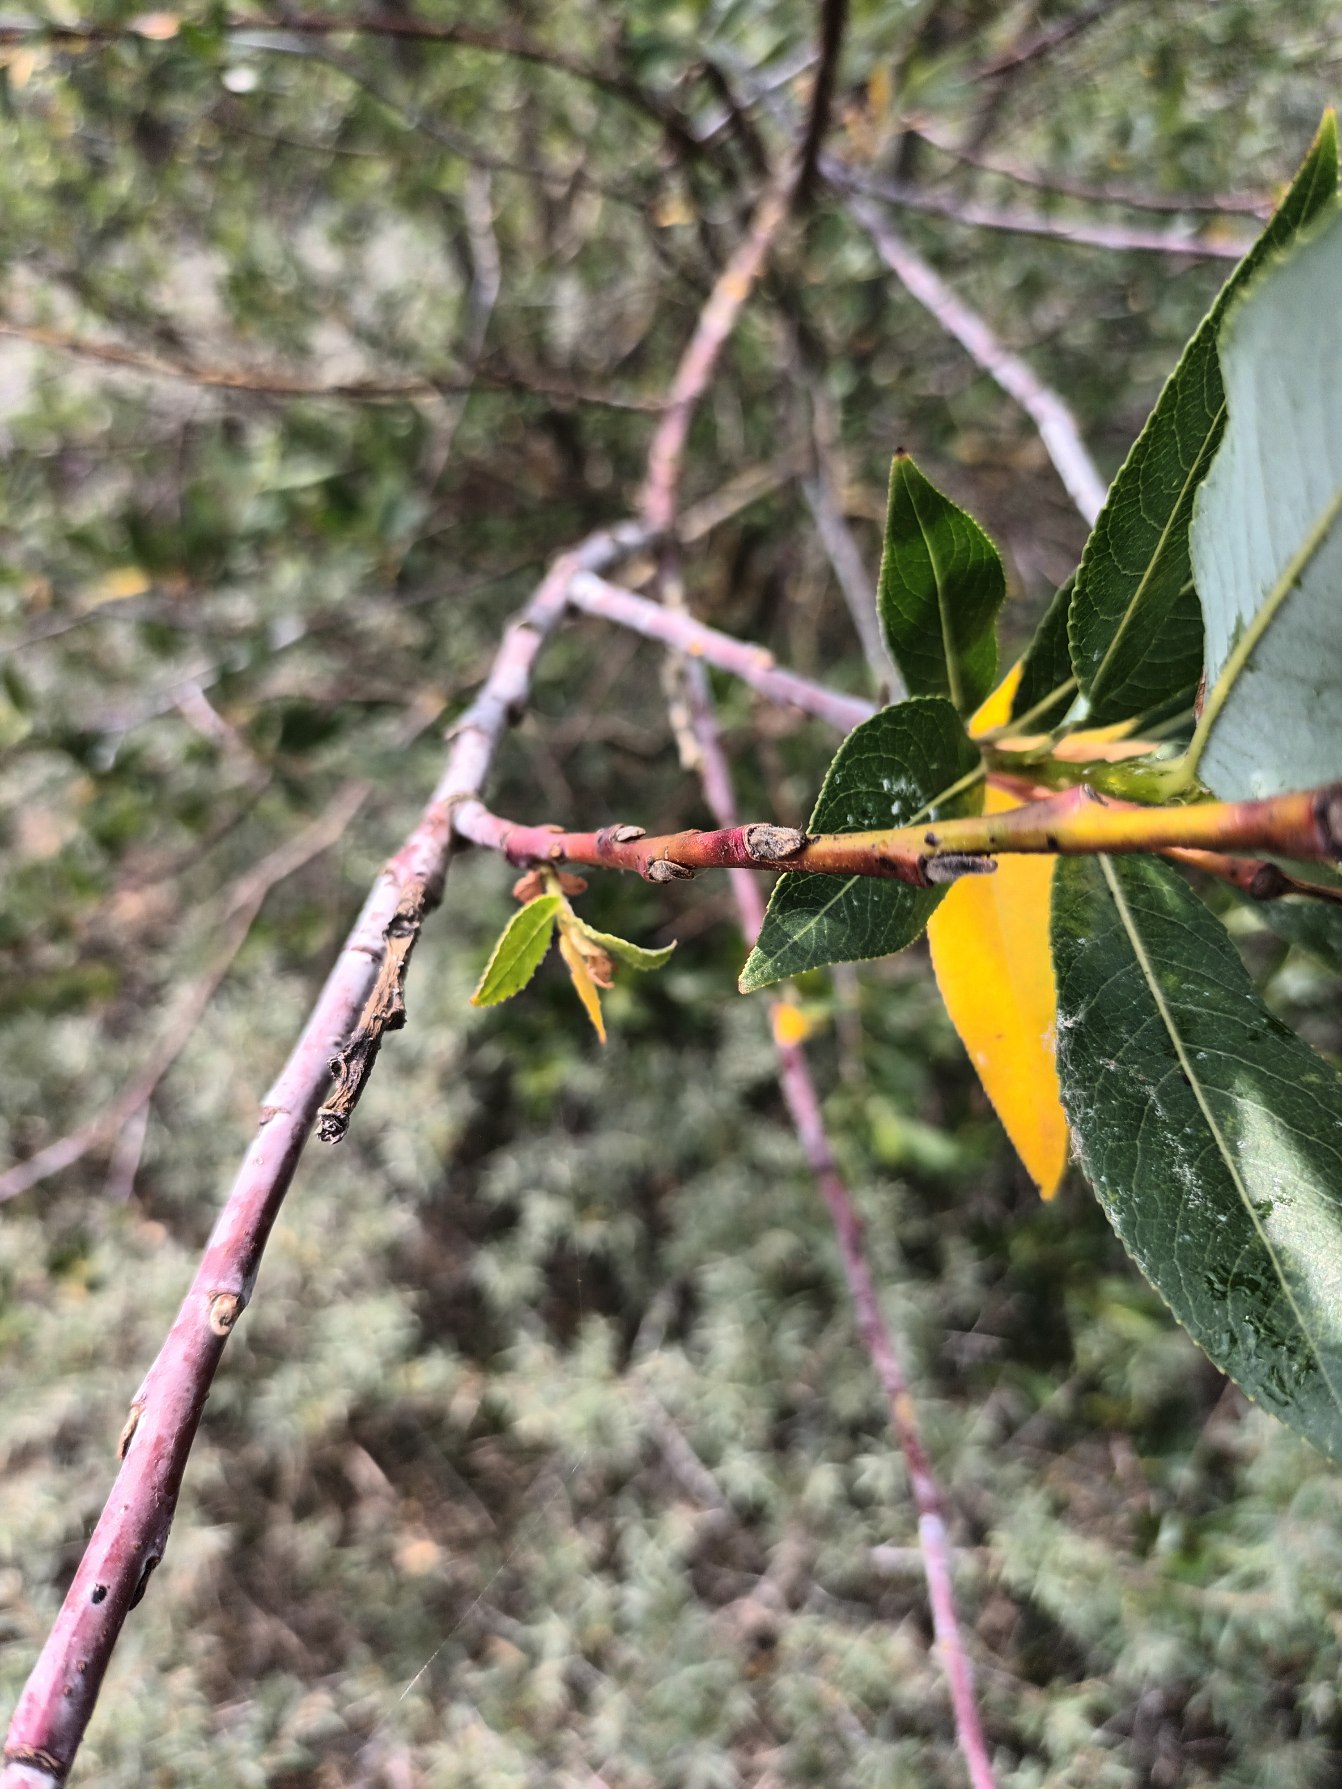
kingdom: Plantae
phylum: Tracheophyta
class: Magnoliopsida
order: Malpighiales
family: Salicaceae
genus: Salix
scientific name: Salix daphnoides
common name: Pommersk pil
